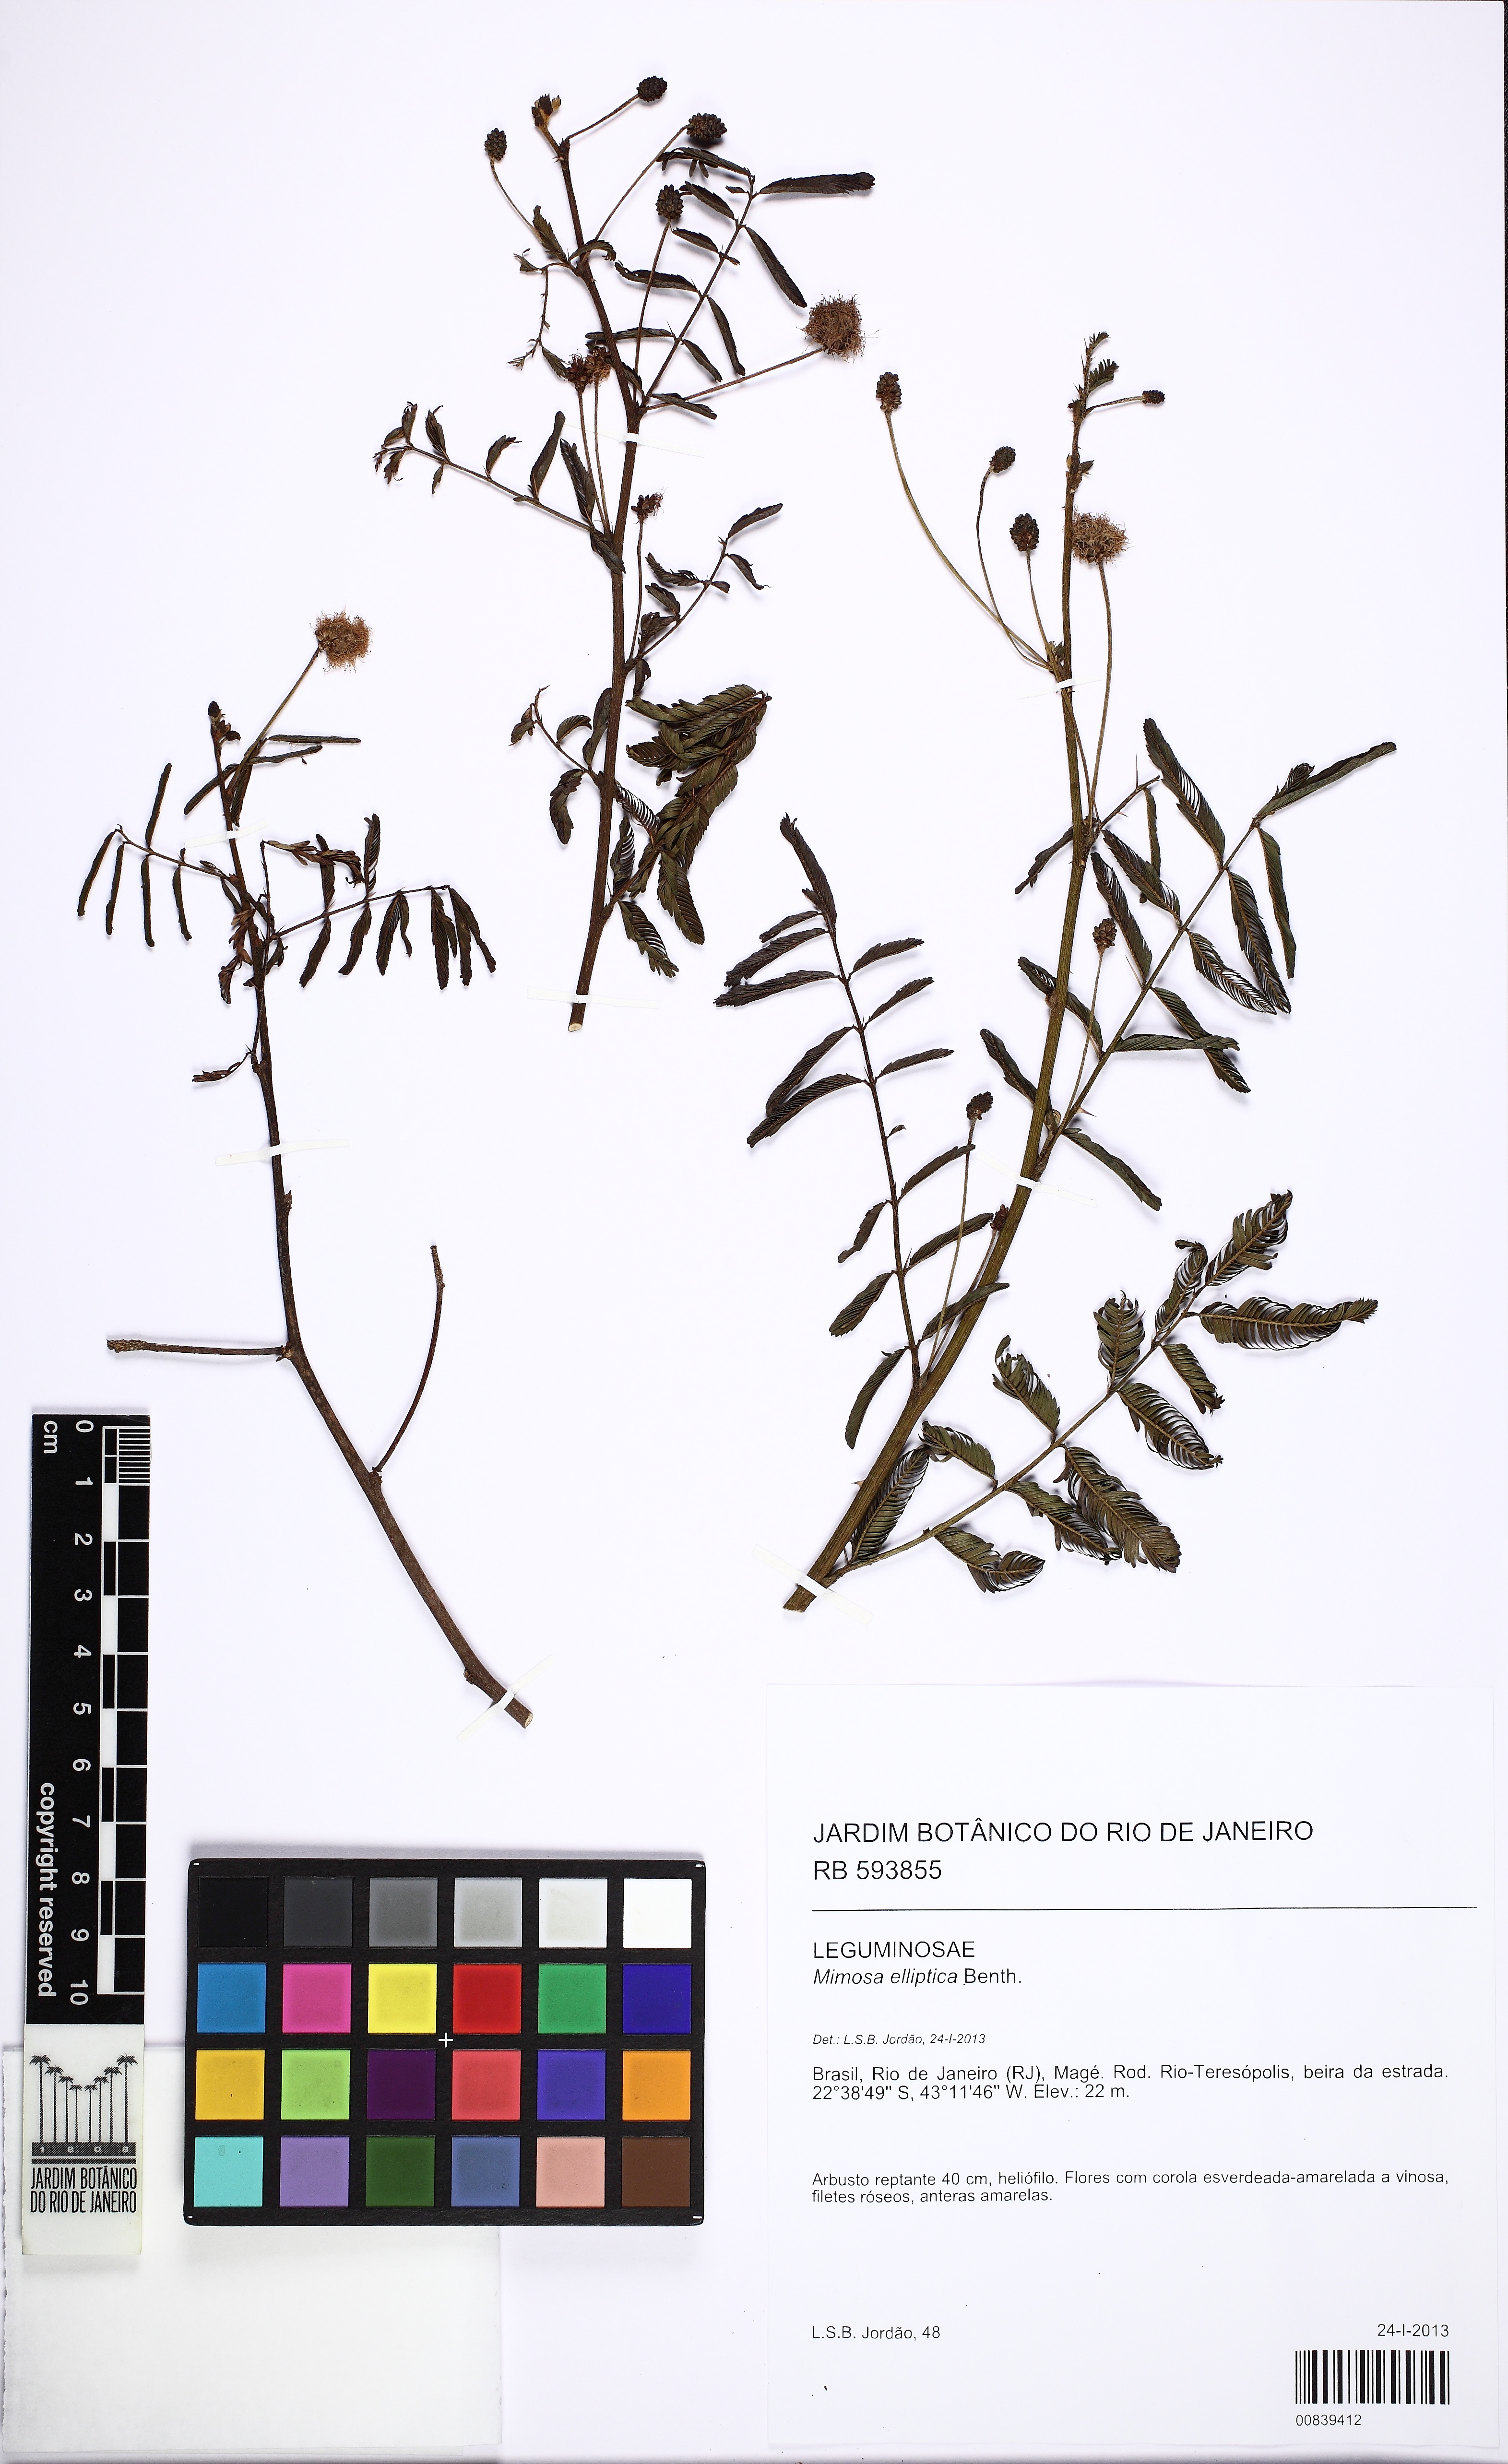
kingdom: Plantae
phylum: Tracheophyta
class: Magnoliopsida
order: Fabales
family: Fabaceae
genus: Mimosa
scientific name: Mimosa elliptica
